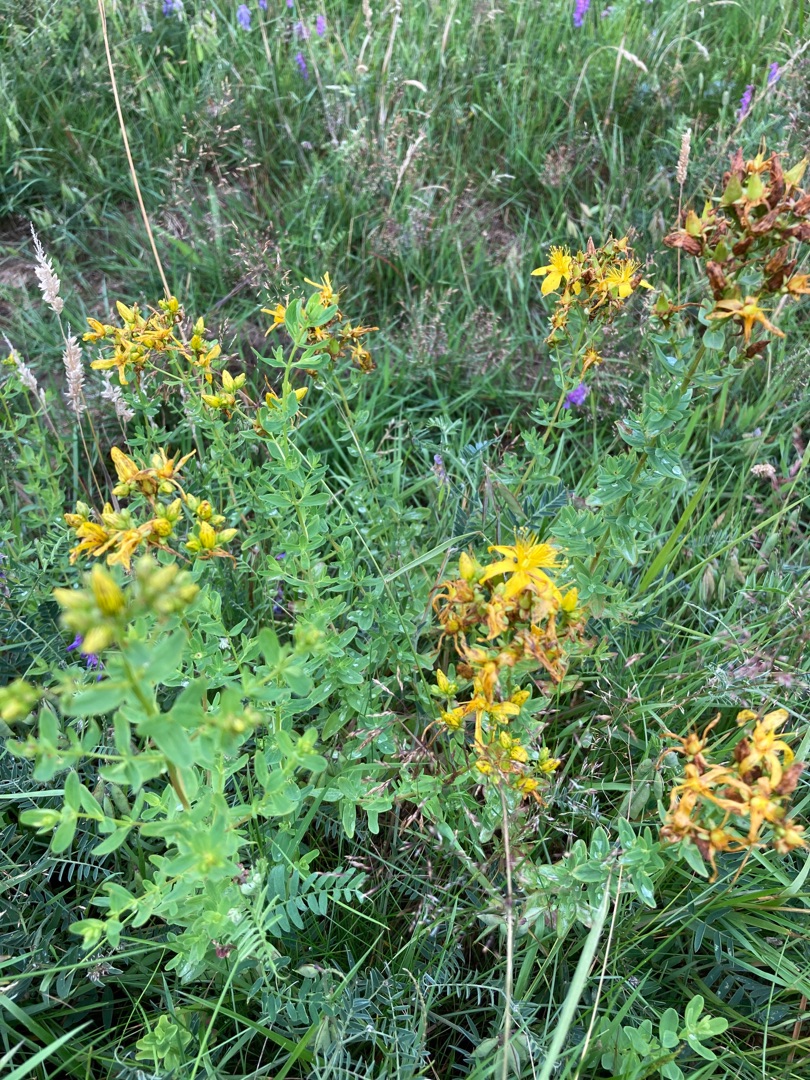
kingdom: Plantae
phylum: Tracheophyta
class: Magnoliopsida
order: Malpighiales
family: Hypericaceae
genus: Hypericum
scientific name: Hypericum perforatum
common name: Prikbladet perikon
